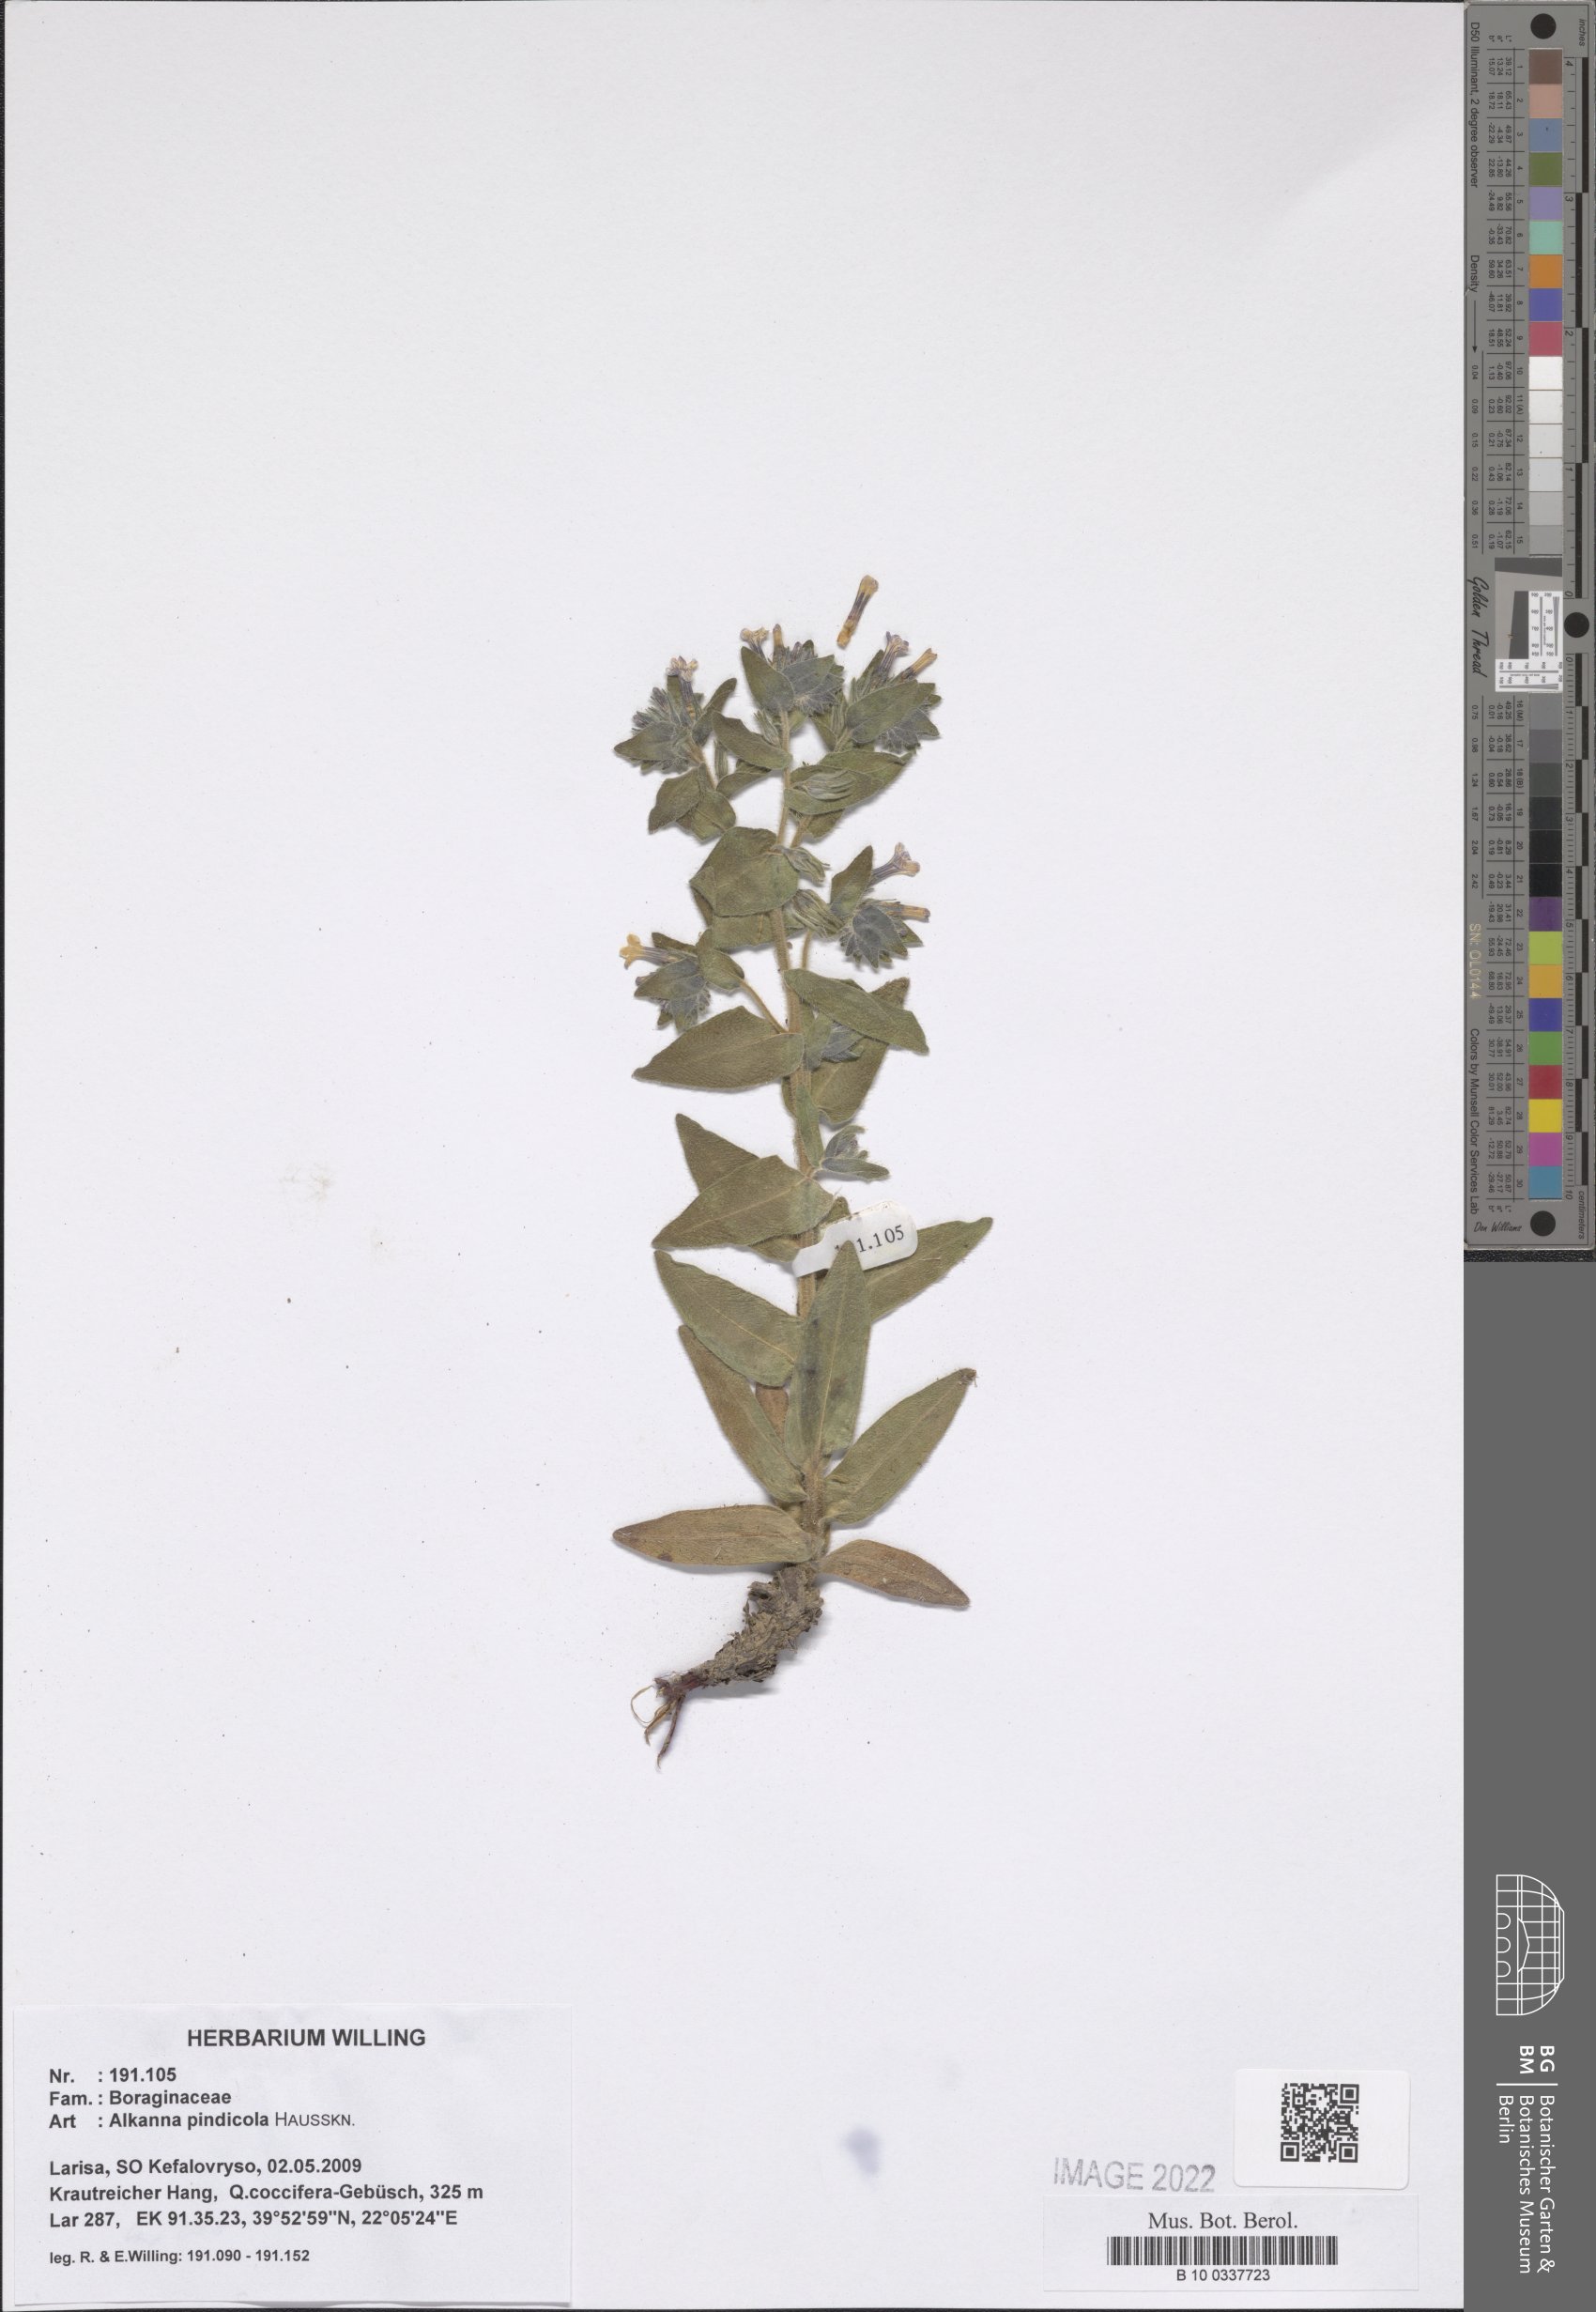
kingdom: Plantae
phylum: Tracheophyta
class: Magnoliopsida
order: Boraginales
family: Boraginaceae
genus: Alkanna
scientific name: Alkanna pindicola
